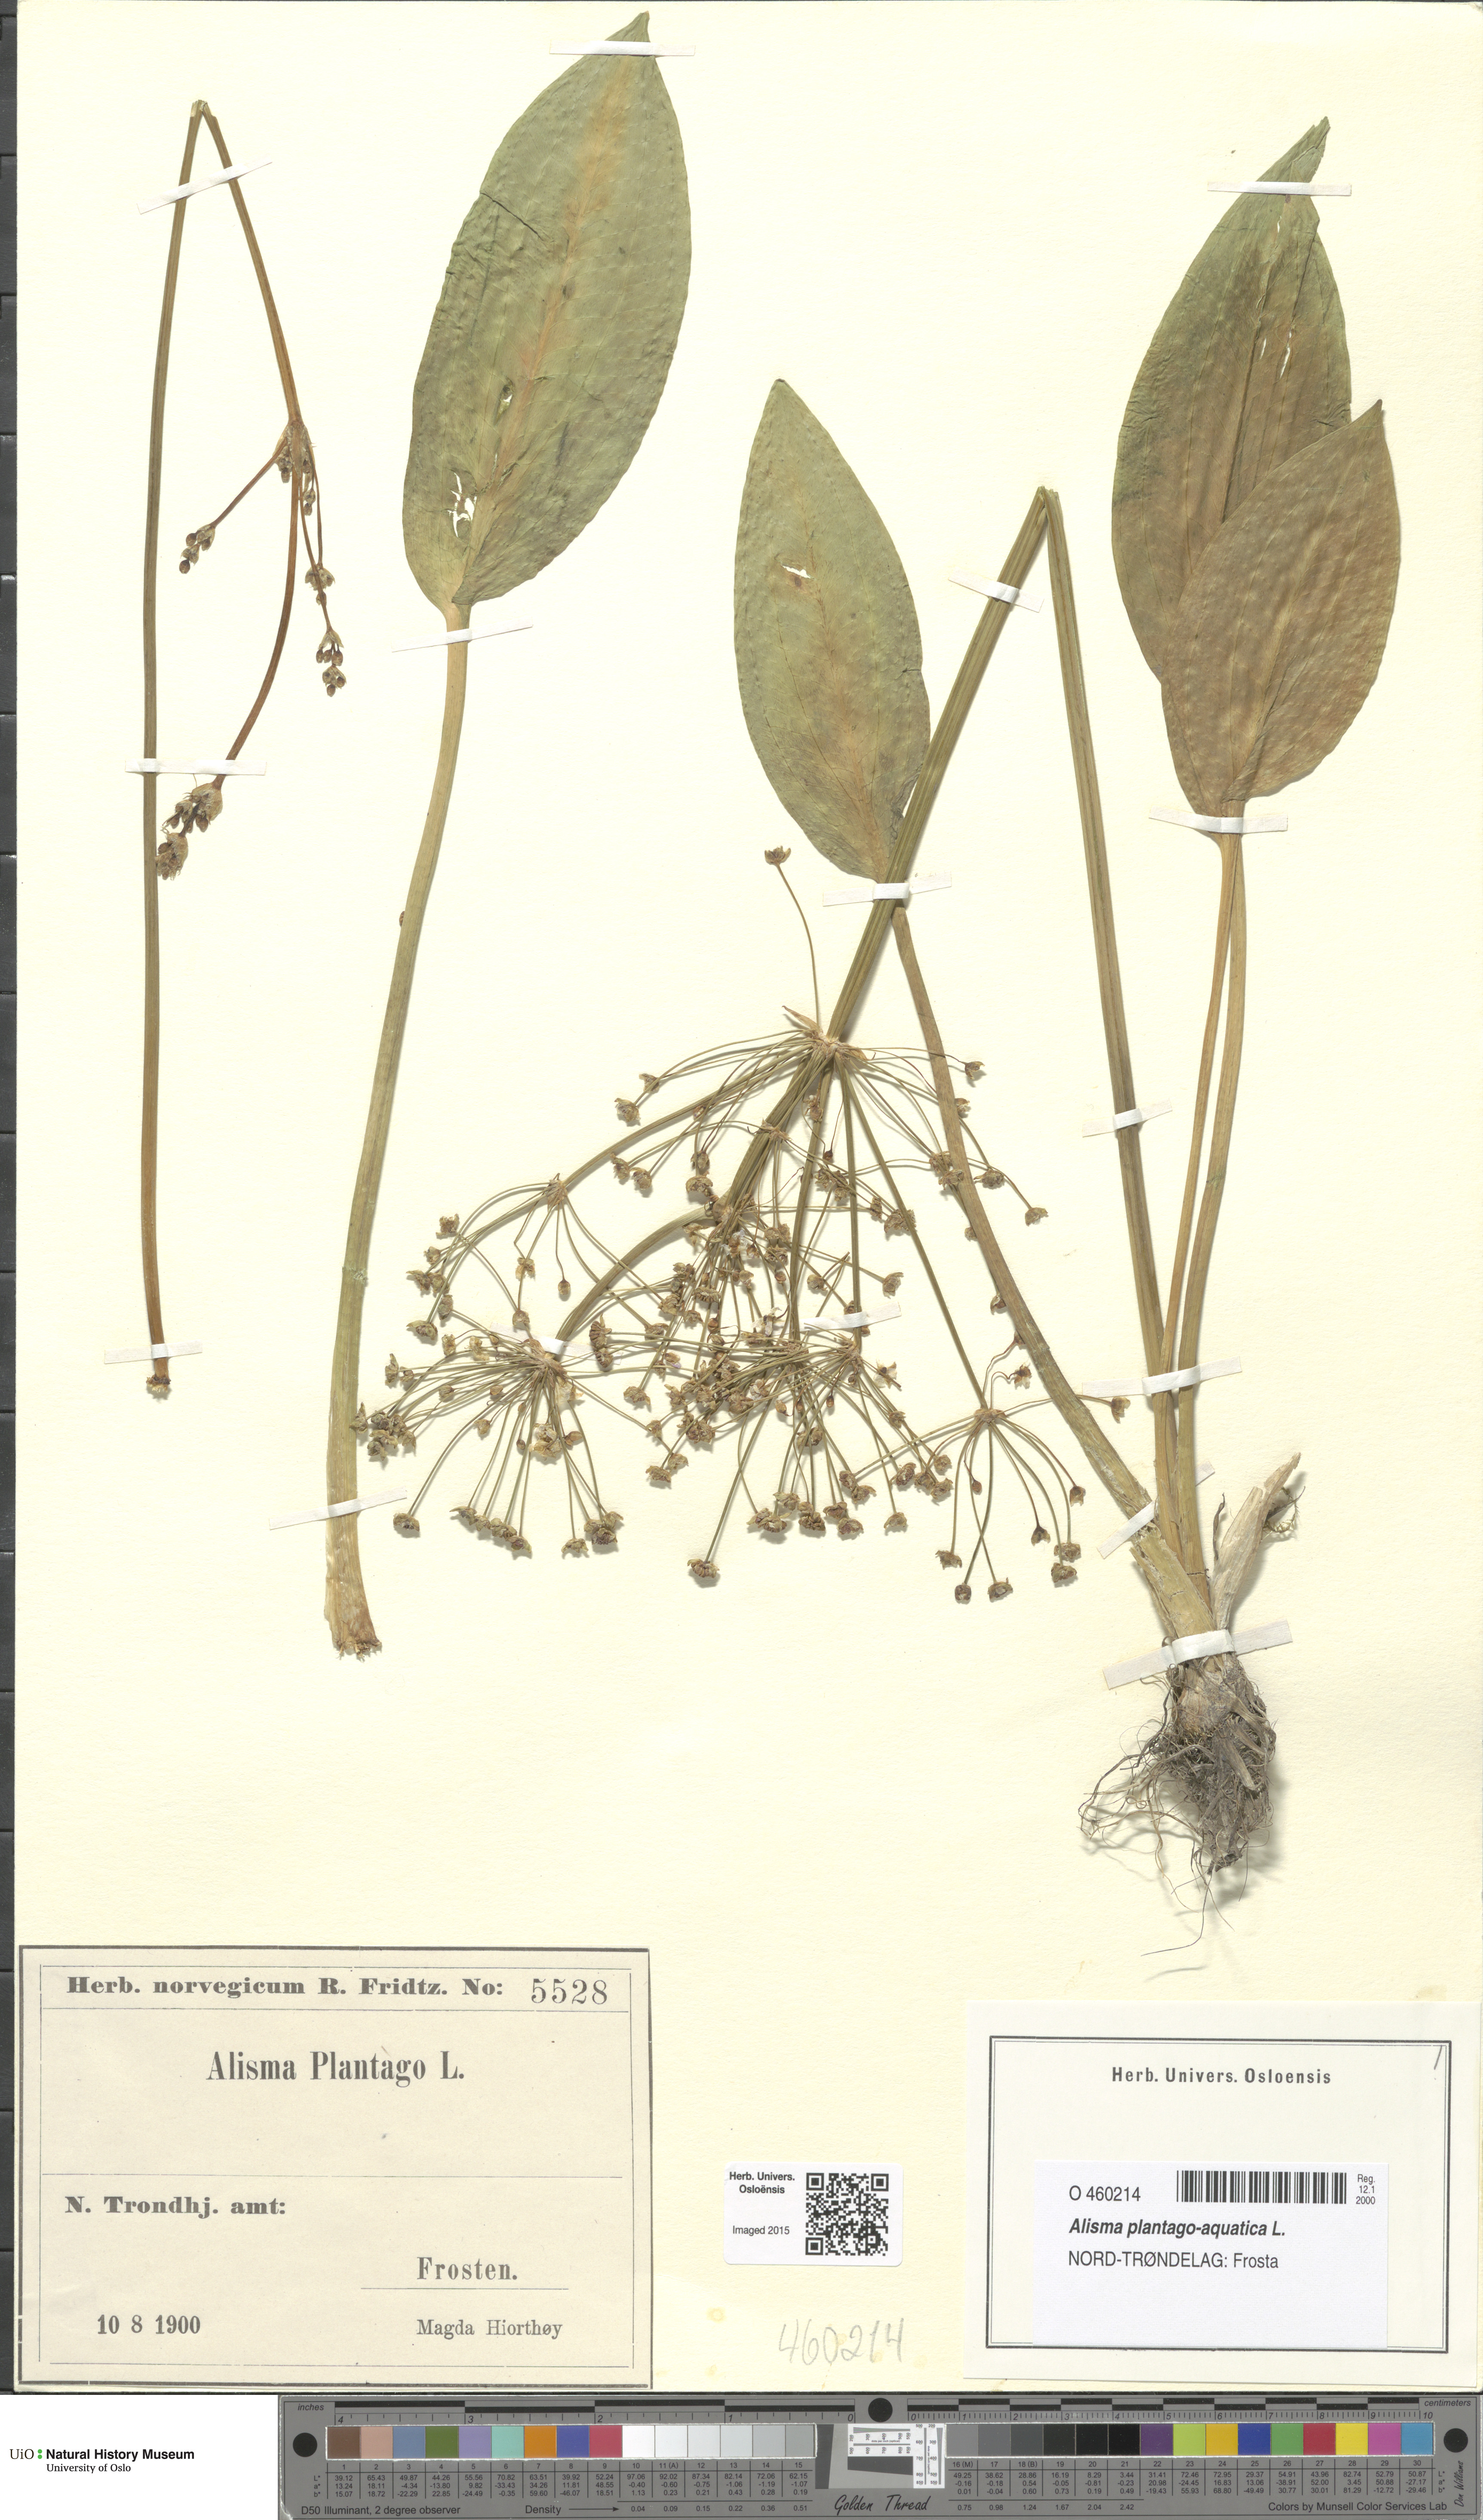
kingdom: Plantae
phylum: Tracheophyta
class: Liliopsida
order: Alismatales
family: Alismataceae
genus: Alisma
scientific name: Alisma plantago-aquatica
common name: Water-plantain
